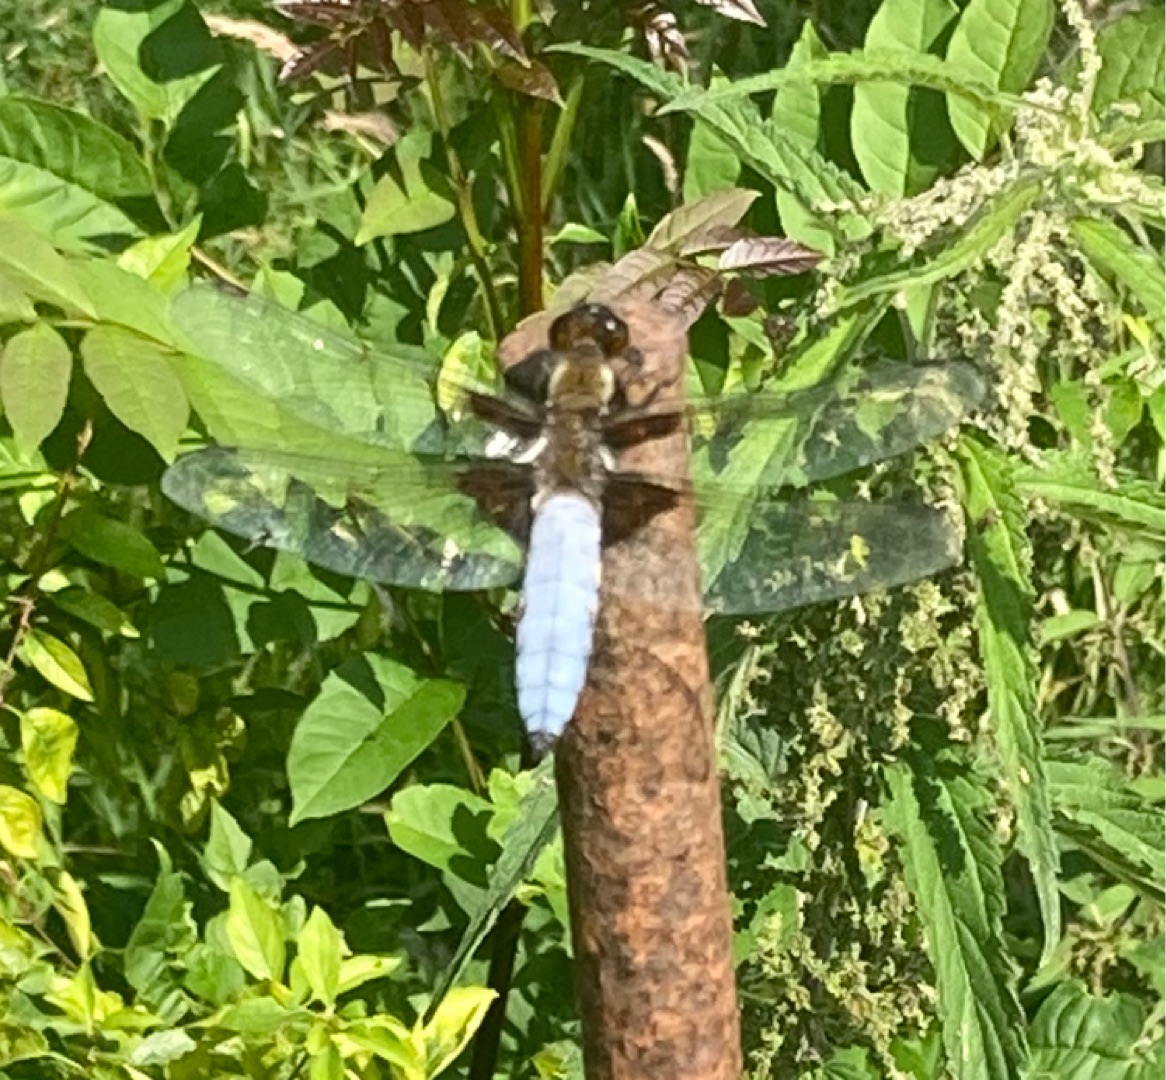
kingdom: Animalia
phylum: Arthropoda
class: Insecta
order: Odonata
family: Libellulidae
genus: Libellula
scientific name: Libellula depressa
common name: Blå libel
